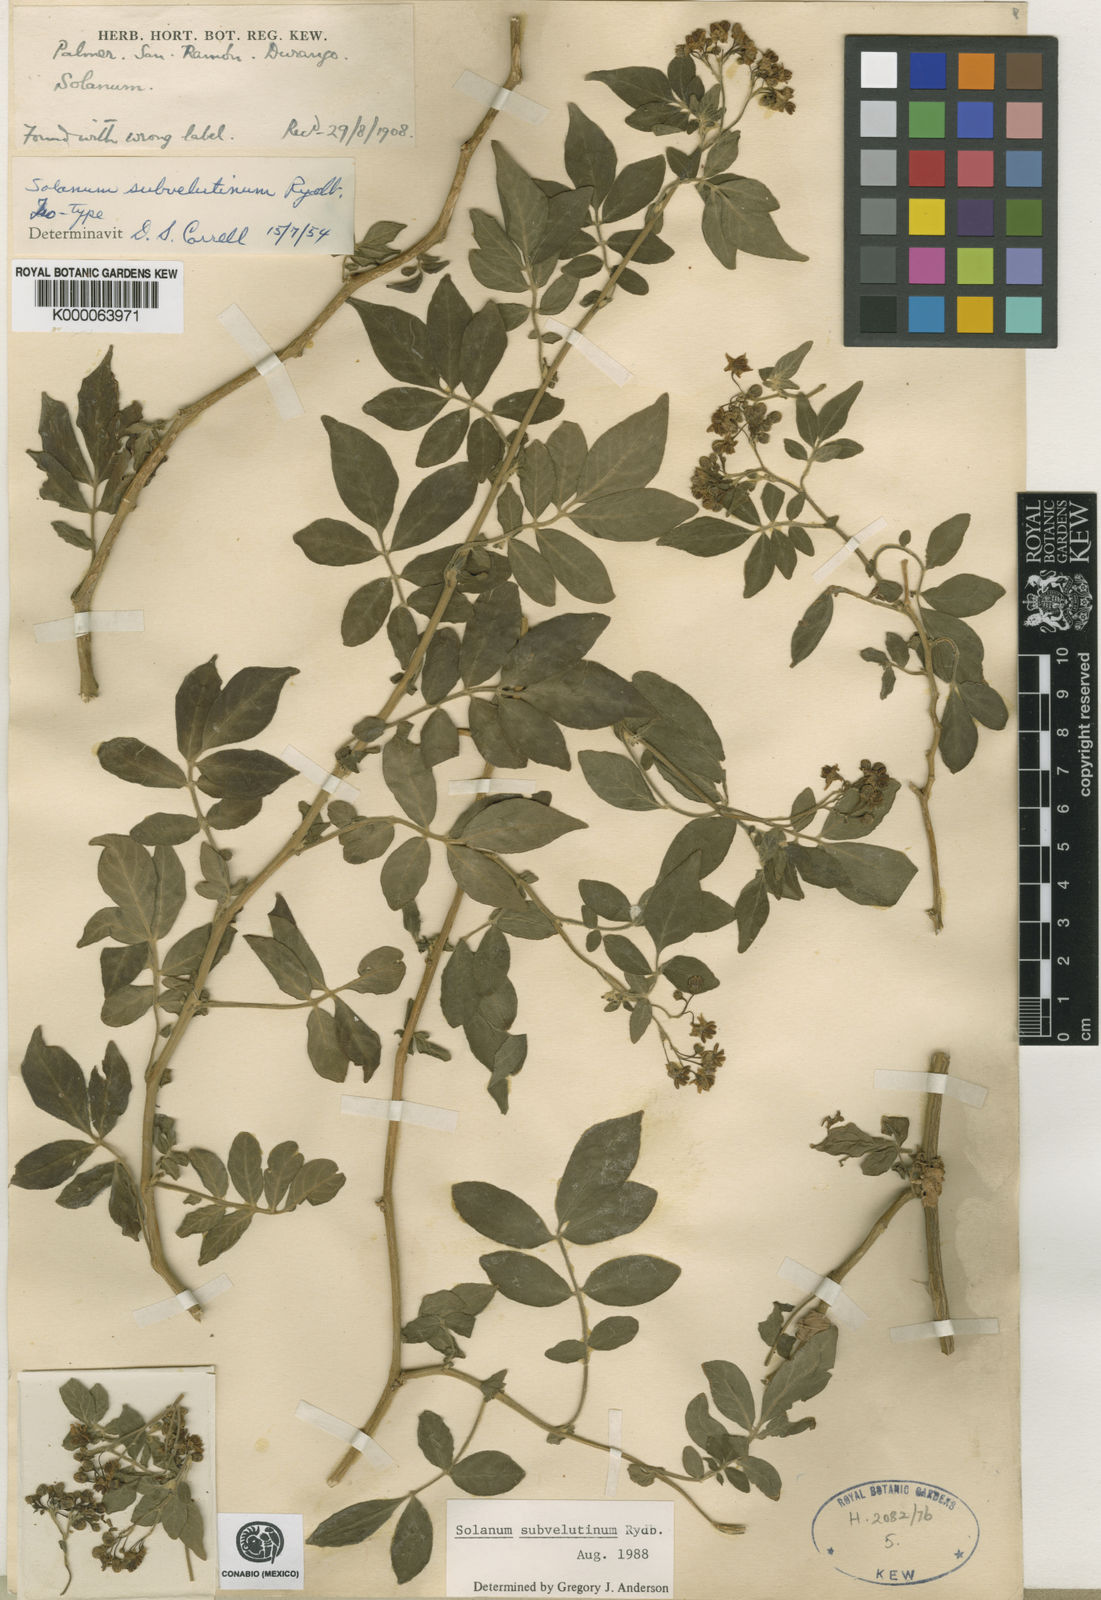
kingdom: Plantae
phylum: Tracheophyta
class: Magnoliopsida
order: Solanales
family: Solanaceae
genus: Solanum
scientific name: Solanum subvelutinum
